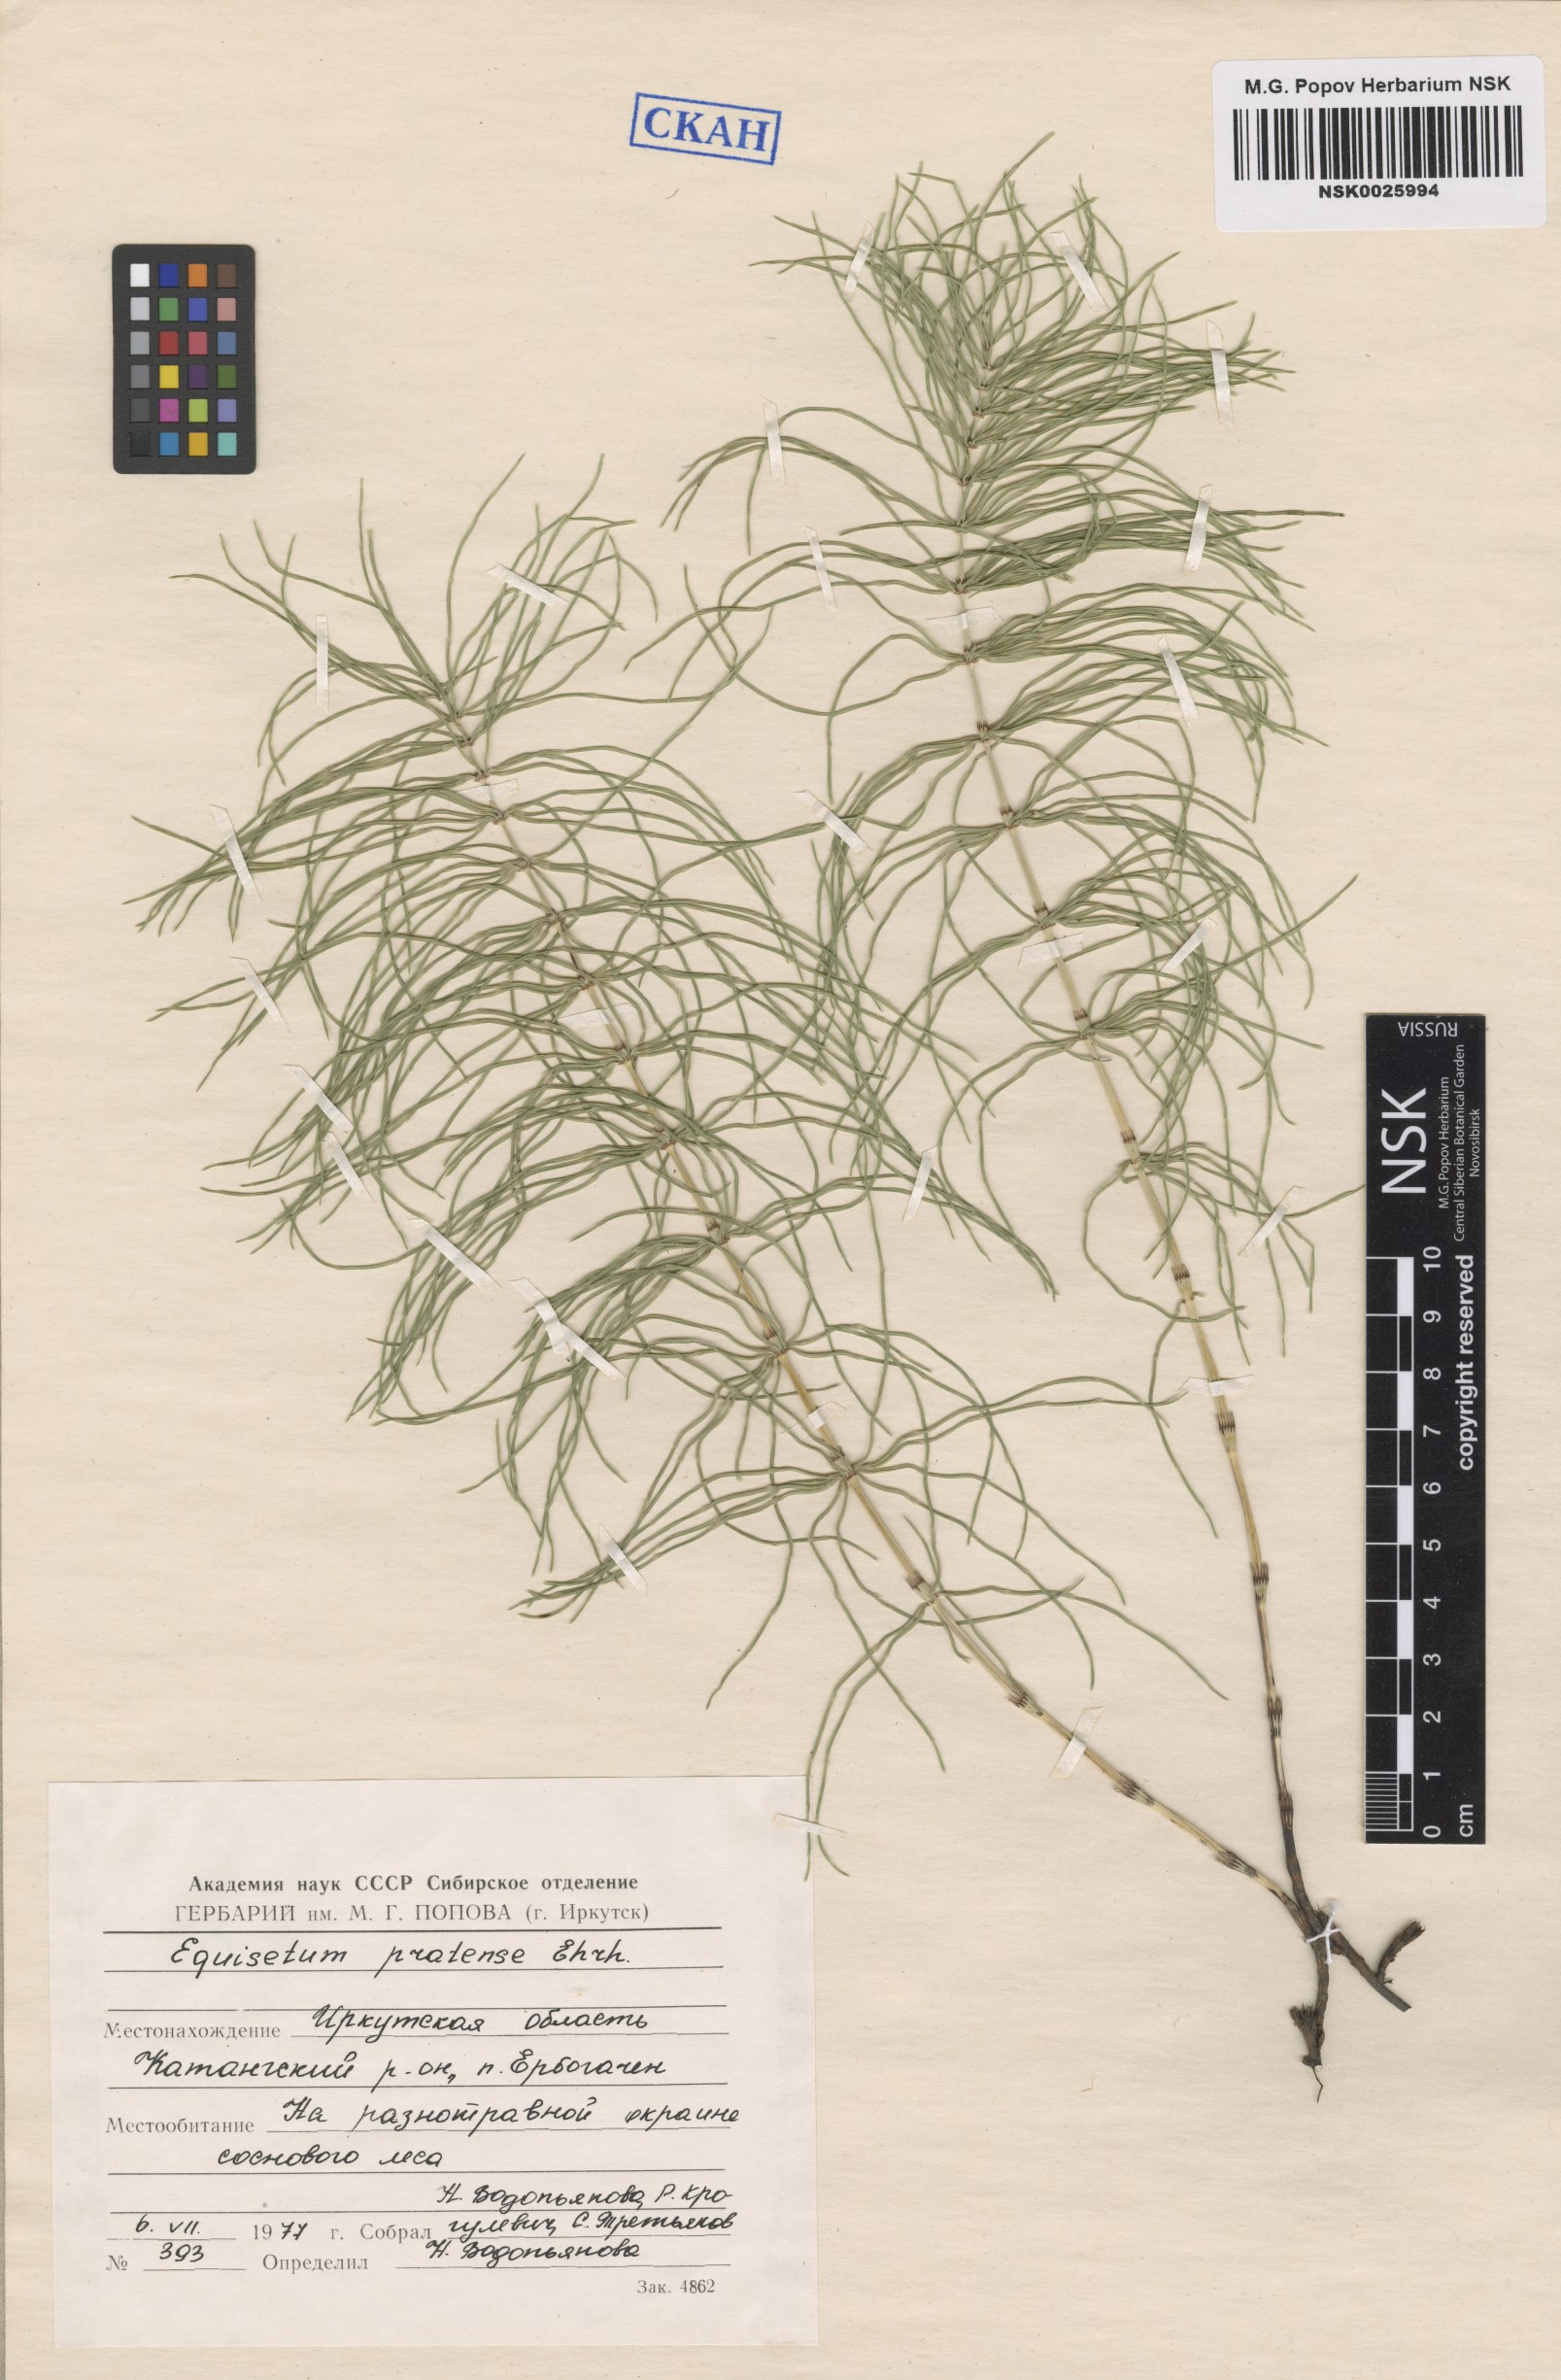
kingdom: Plantae
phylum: Tracheophyta
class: Polypodiopsida
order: Equisetales
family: Equisetaceae
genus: Equisetum
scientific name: Equisetum pratense
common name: Meadow horsetail
